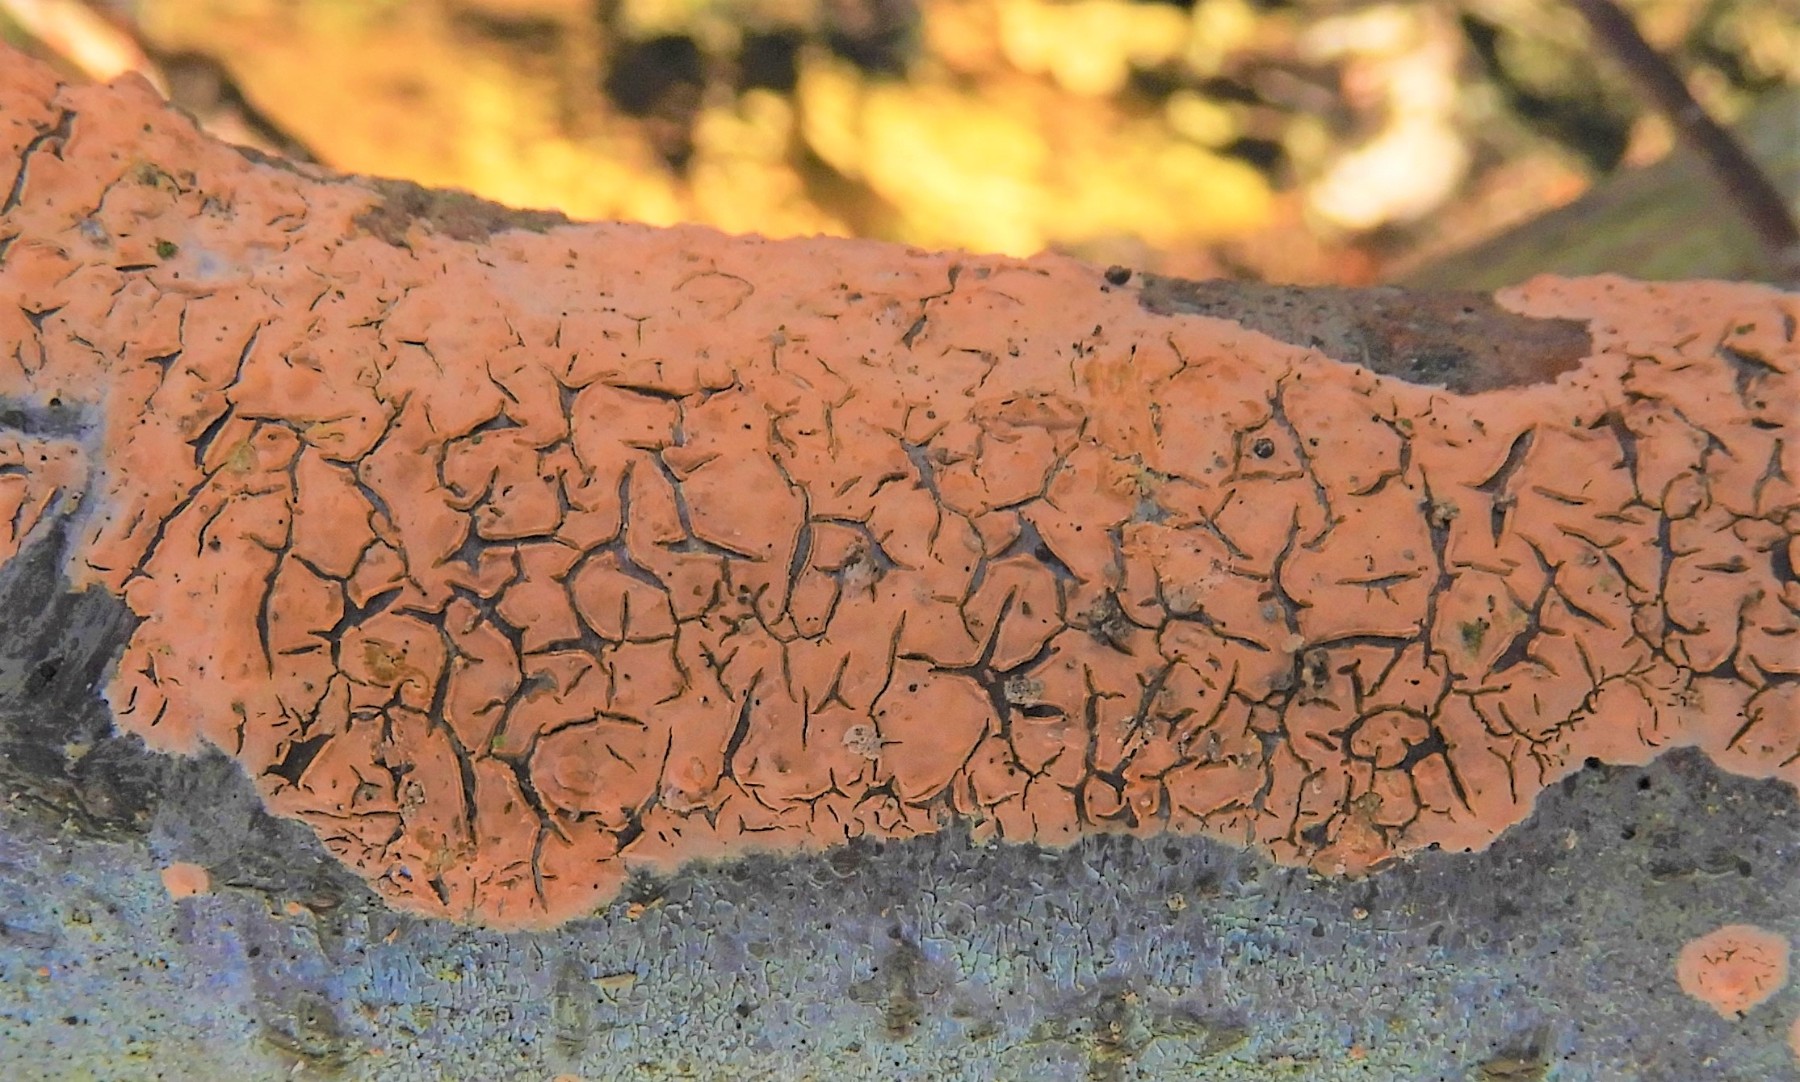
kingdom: Fungi
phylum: Basidiomycota
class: Agaricomycetes
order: Russulales
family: Peniophoraceae
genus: Peniophora
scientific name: Peniophora incarnata
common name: laksefarvet voksskind
